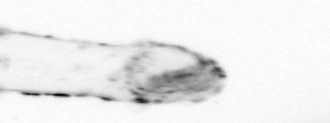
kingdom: Animalia
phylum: Chaetognatha
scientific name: Chaetognatha
